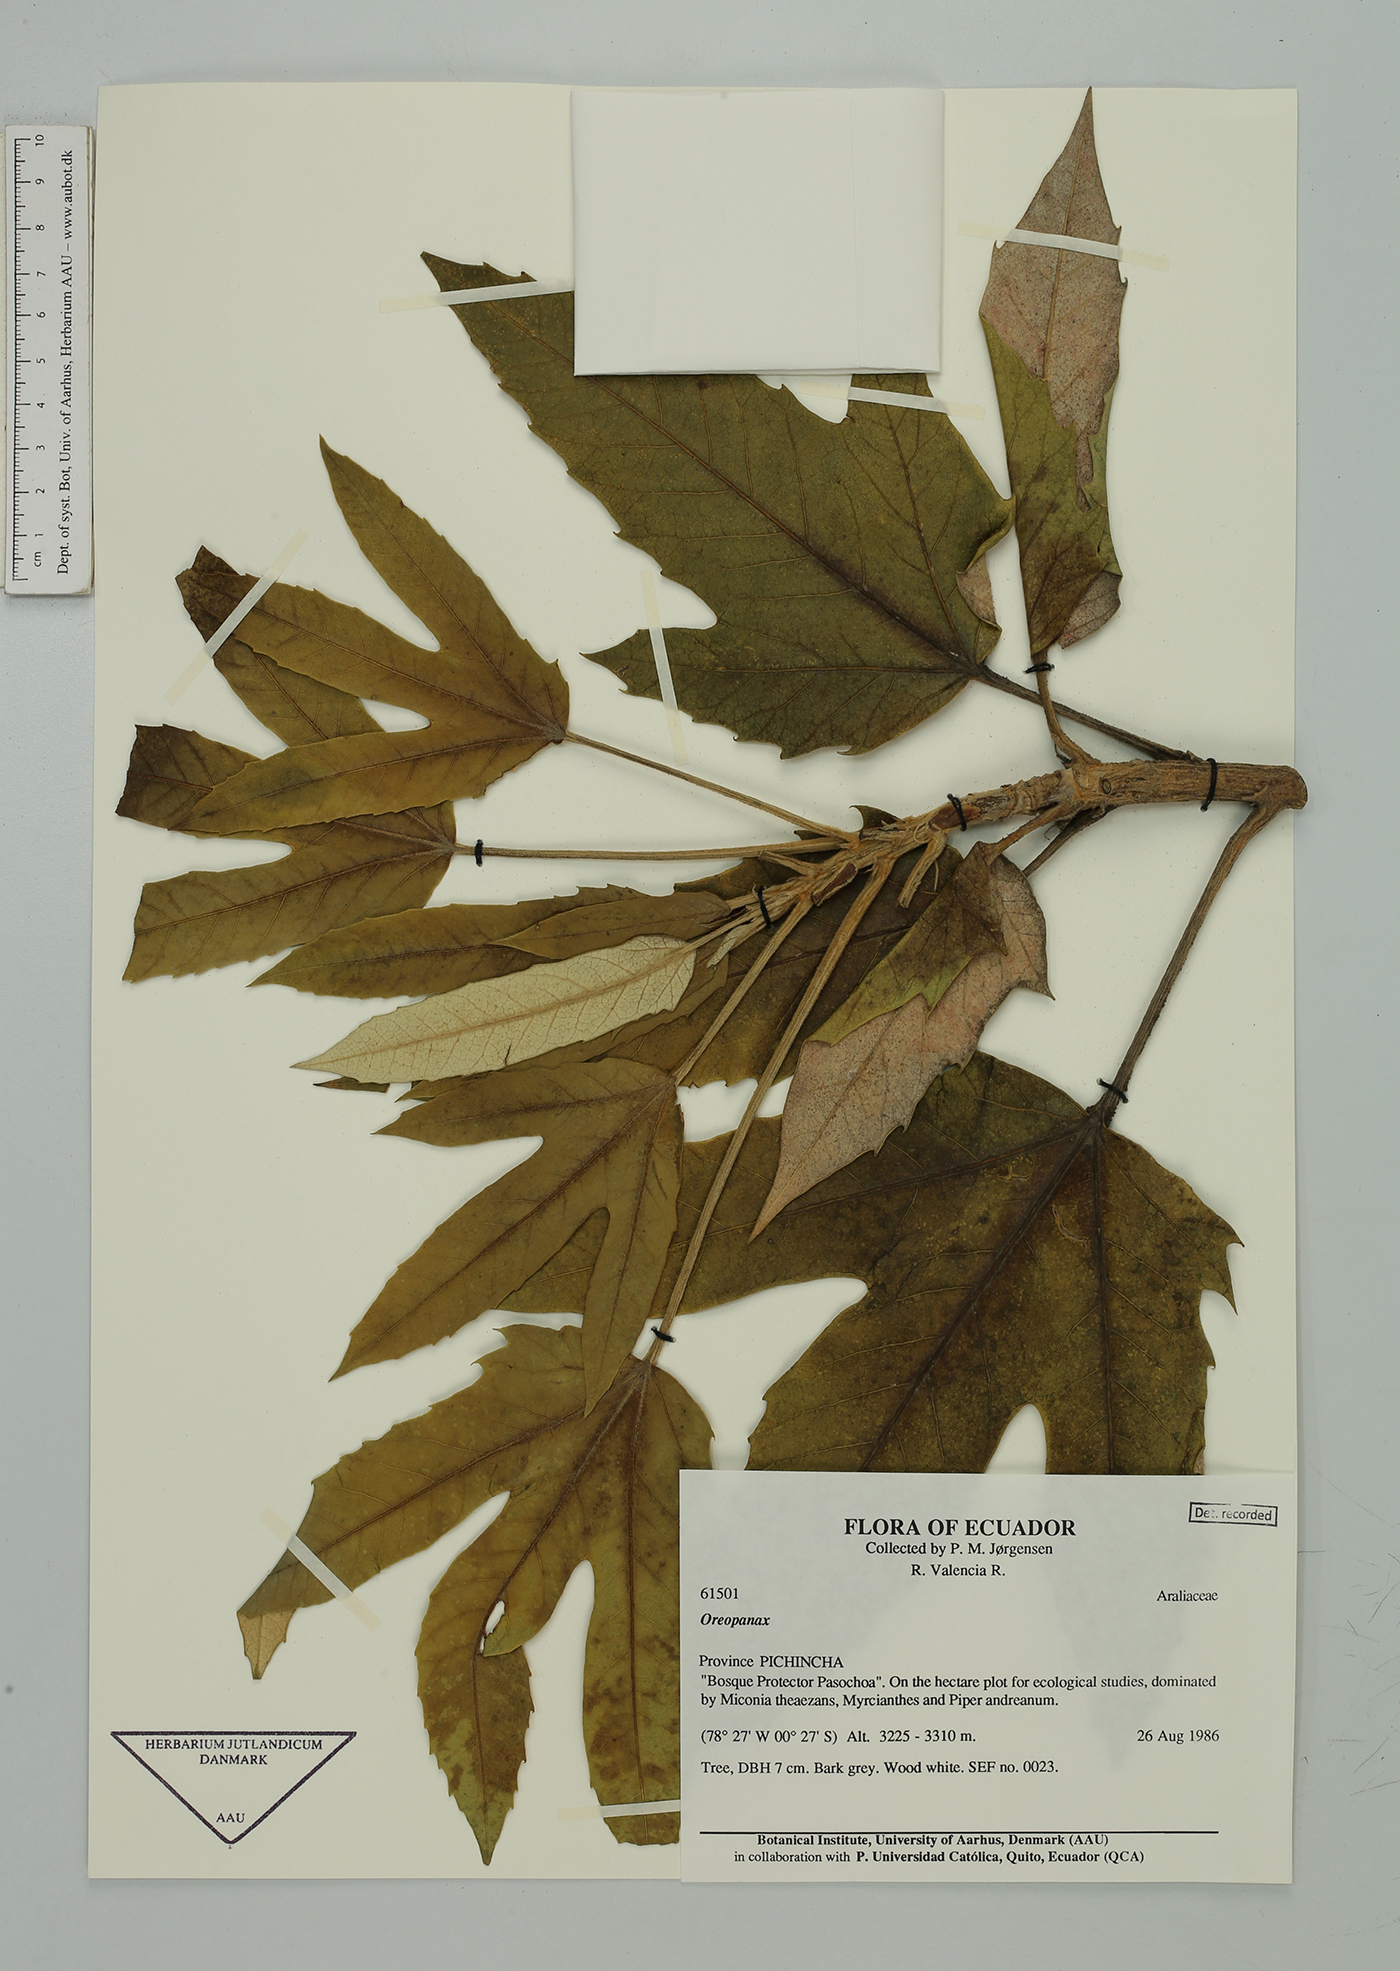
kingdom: Plantae
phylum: Tracheophyta
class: Magnoliopsida
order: Apiales
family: Araliaceae
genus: Oreopanax
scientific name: Oreopanax
